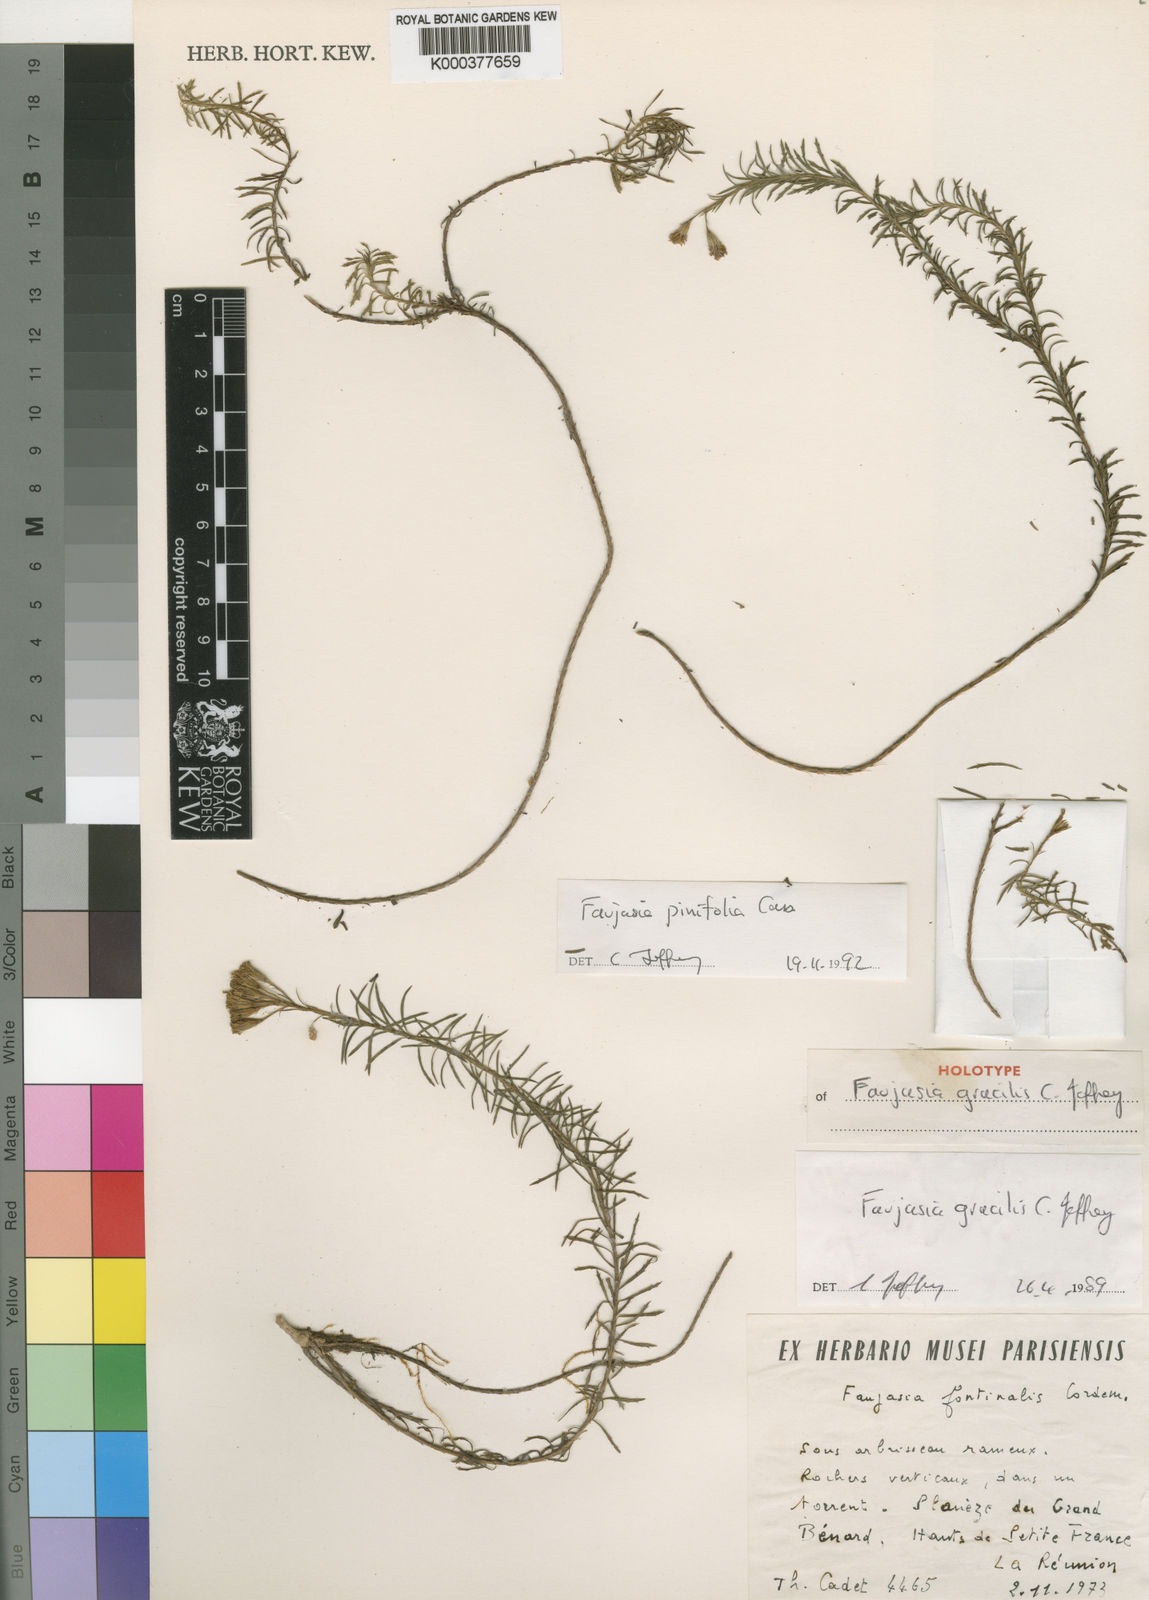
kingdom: Plantae
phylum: Tracheophyta
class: Magnoliopsida
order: Asterales
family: Asteraceae
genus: Faujasia
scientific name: Faujasia pinifolia
